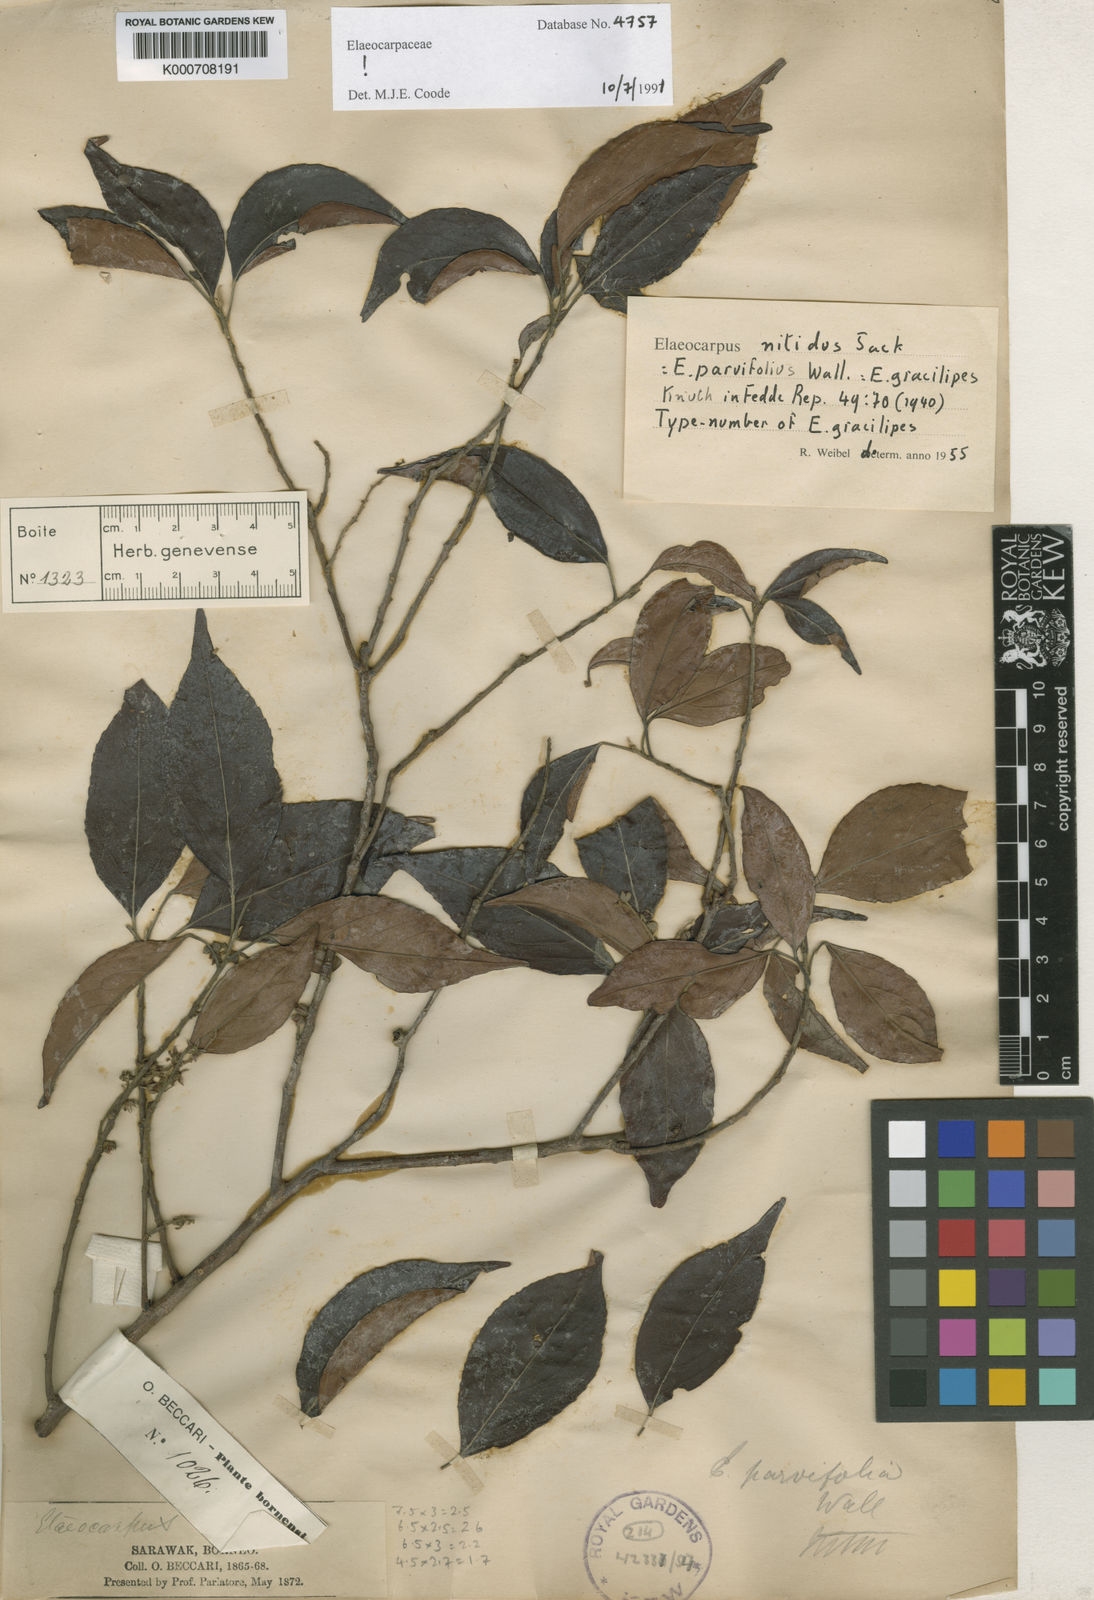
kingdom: Plantae
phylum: Tracheophyta
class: Magnoliopsida
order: Oxalidales
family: Elaeocarpaceae
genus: Elaeocarpus
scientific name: Elaeocarpus nitidus
